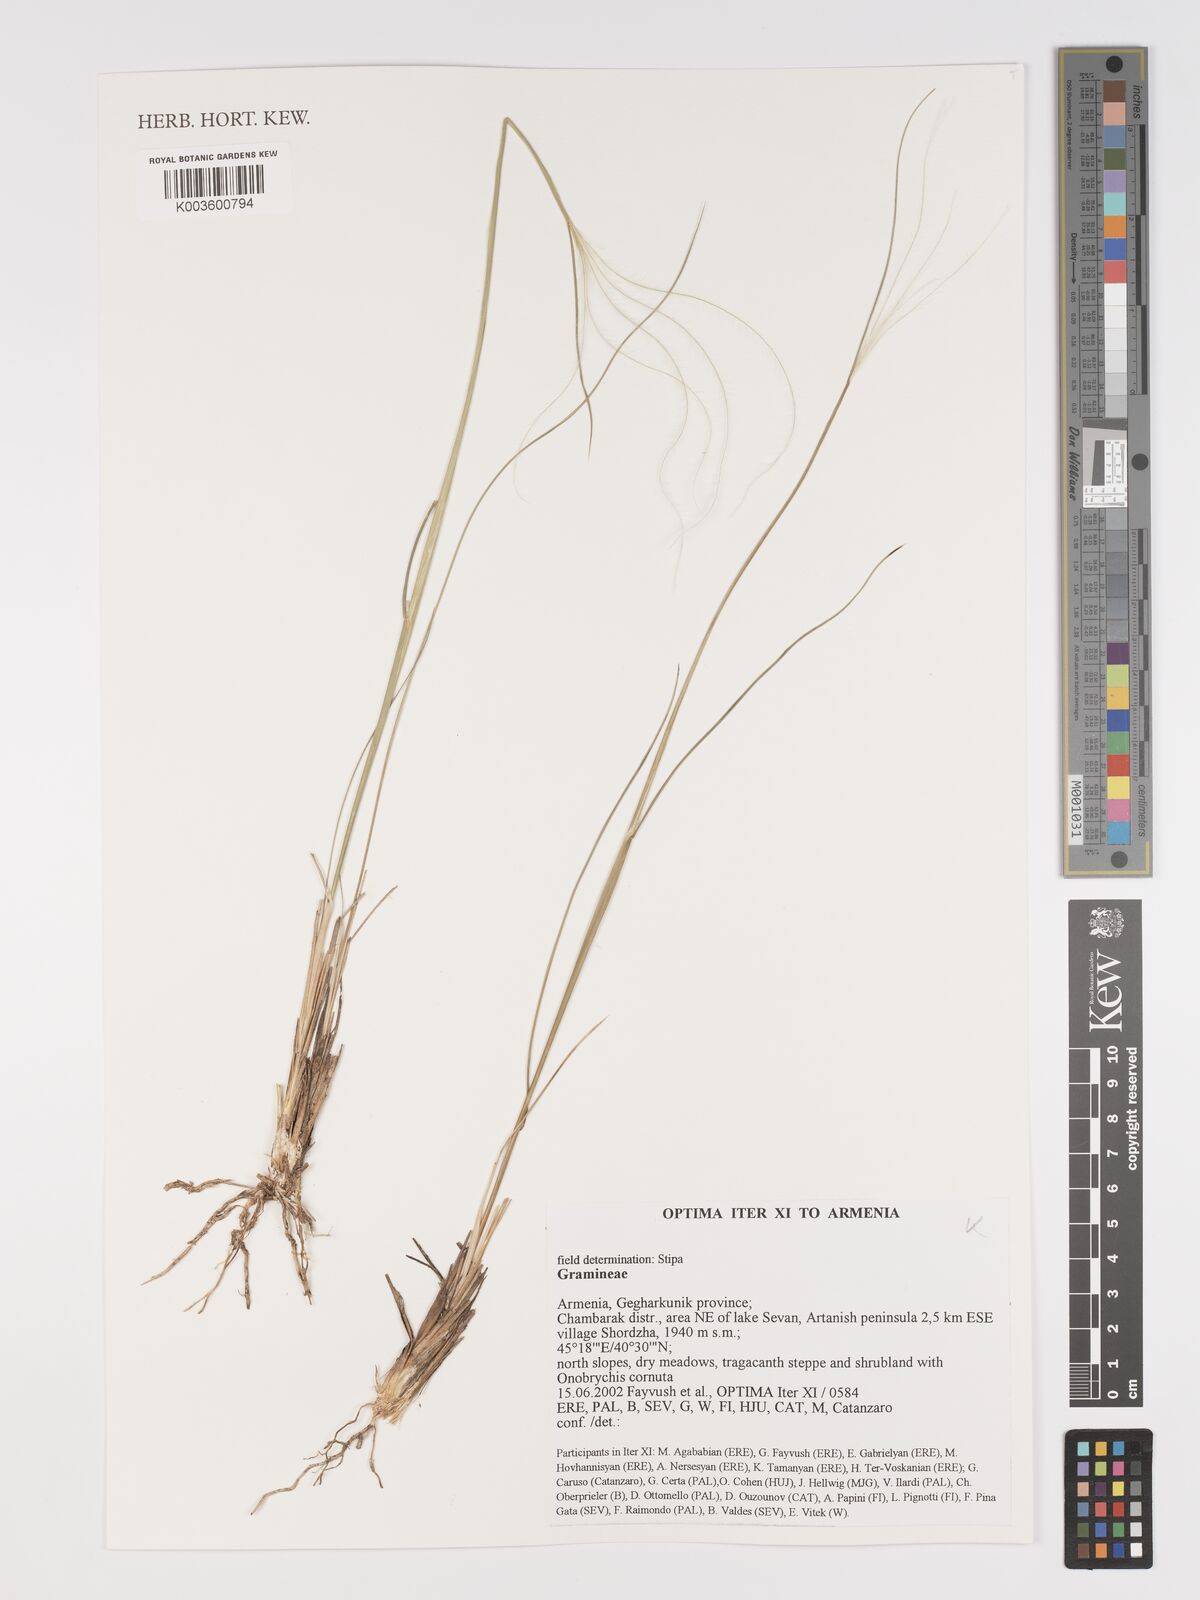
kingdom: Plantae
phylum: Tracheophyta
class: Liliopsida
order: Poales
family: Poaceae
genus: Stipa
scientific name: Stipa
